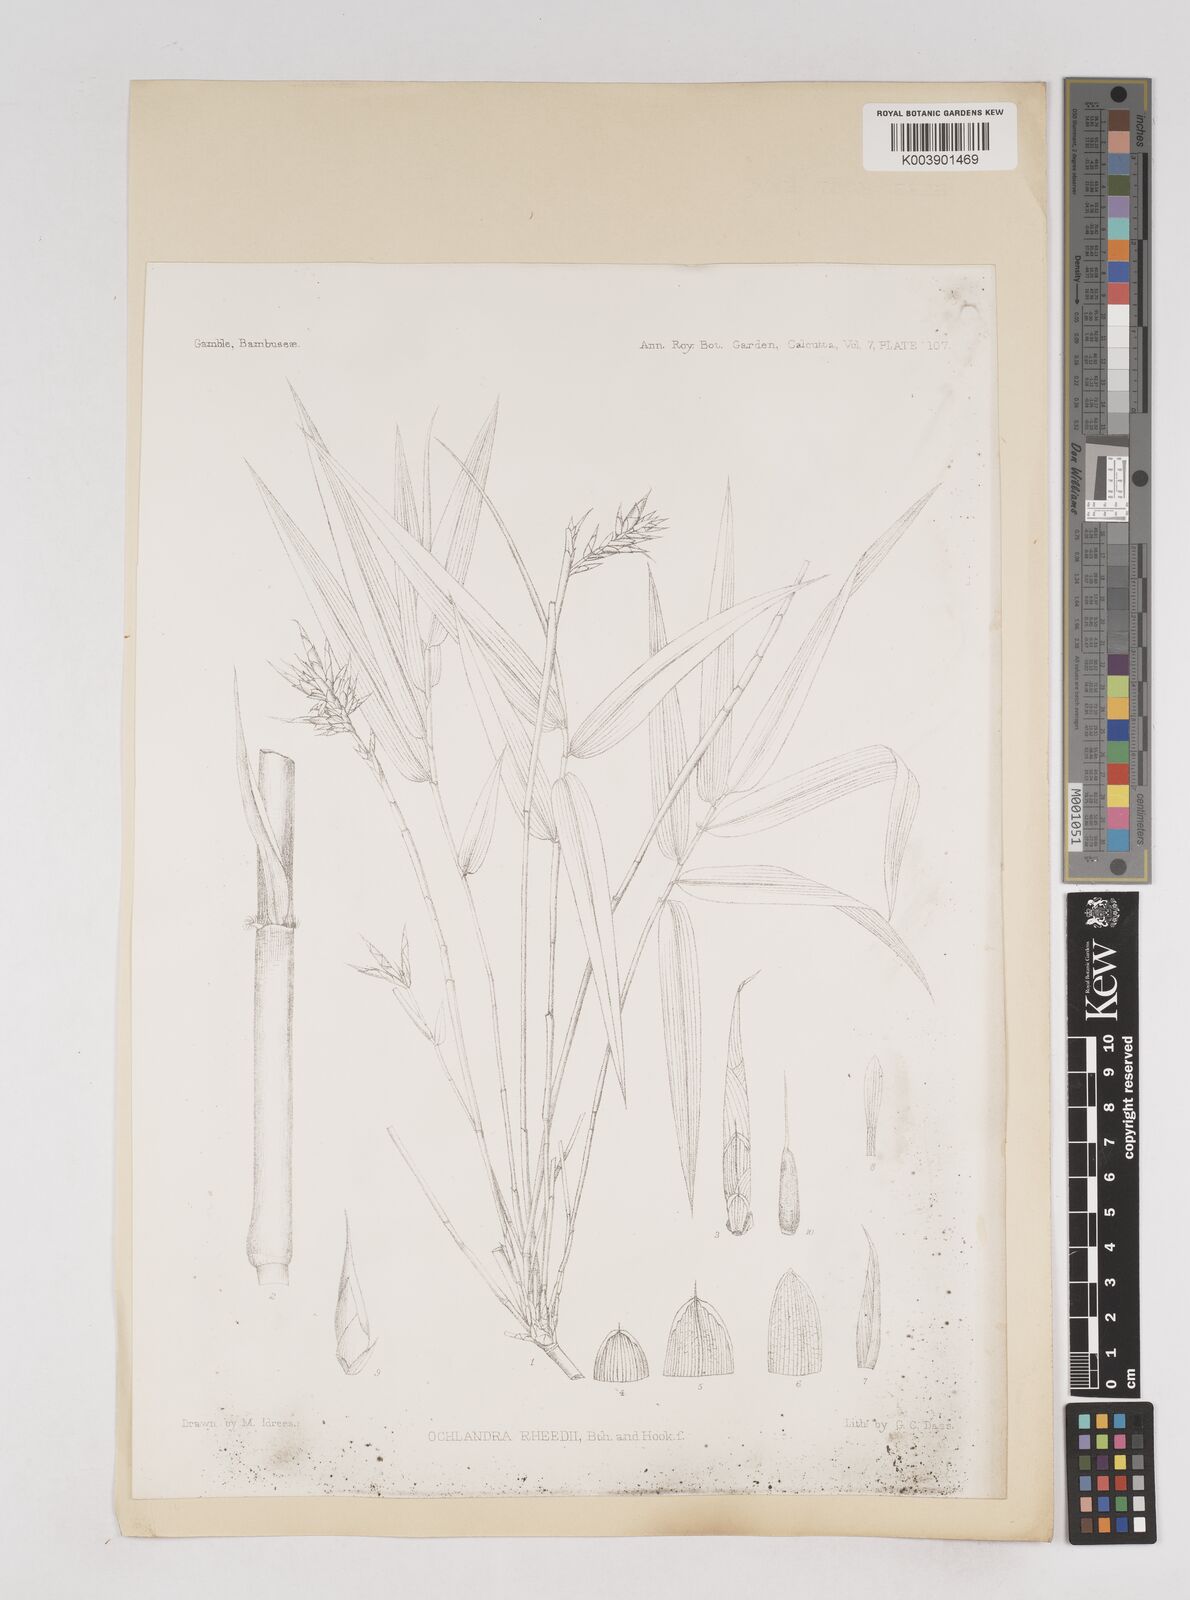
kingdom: Plantae
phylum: Tracheophyta
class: Liliopsida
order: Poales
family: Poaceae
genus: Ochlandra
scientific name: Ochlandra scriptoria
